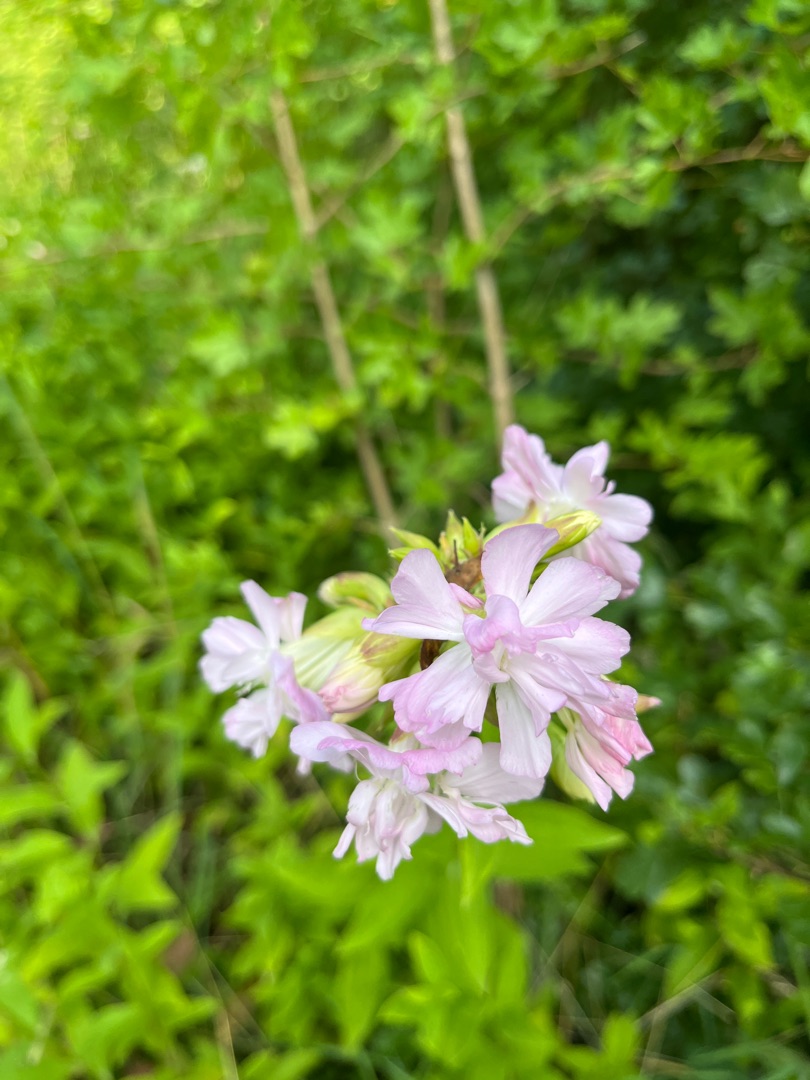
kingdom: Plantae
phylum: Tracheophyta
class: Magnoliopsida
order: Caryophyllales
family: Caryophyllaceae
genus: Saponaria
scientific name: Saponaria officinalis
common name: Sæbeurt
